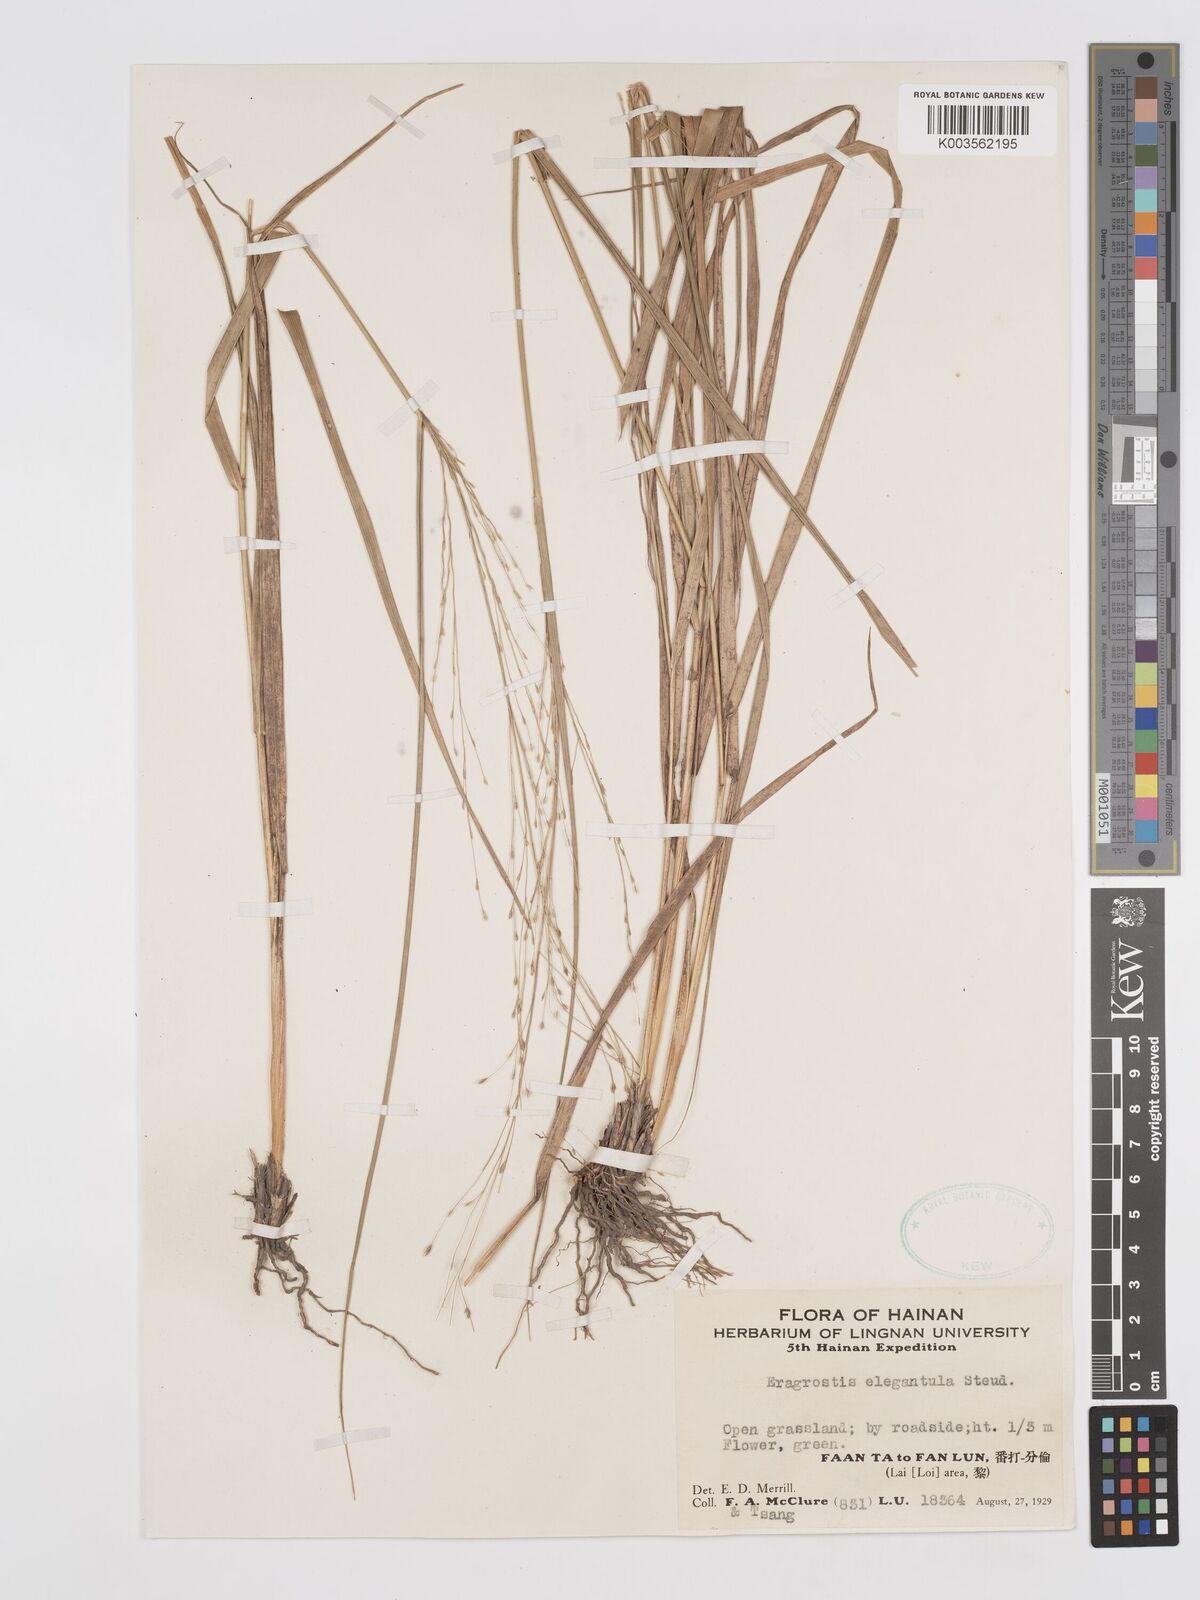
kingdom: Plantae
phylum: Tracheophyta
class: Liliopsida
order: Poales
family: Poaceae
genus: Eragrostis
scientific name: Eragrostis nutans
